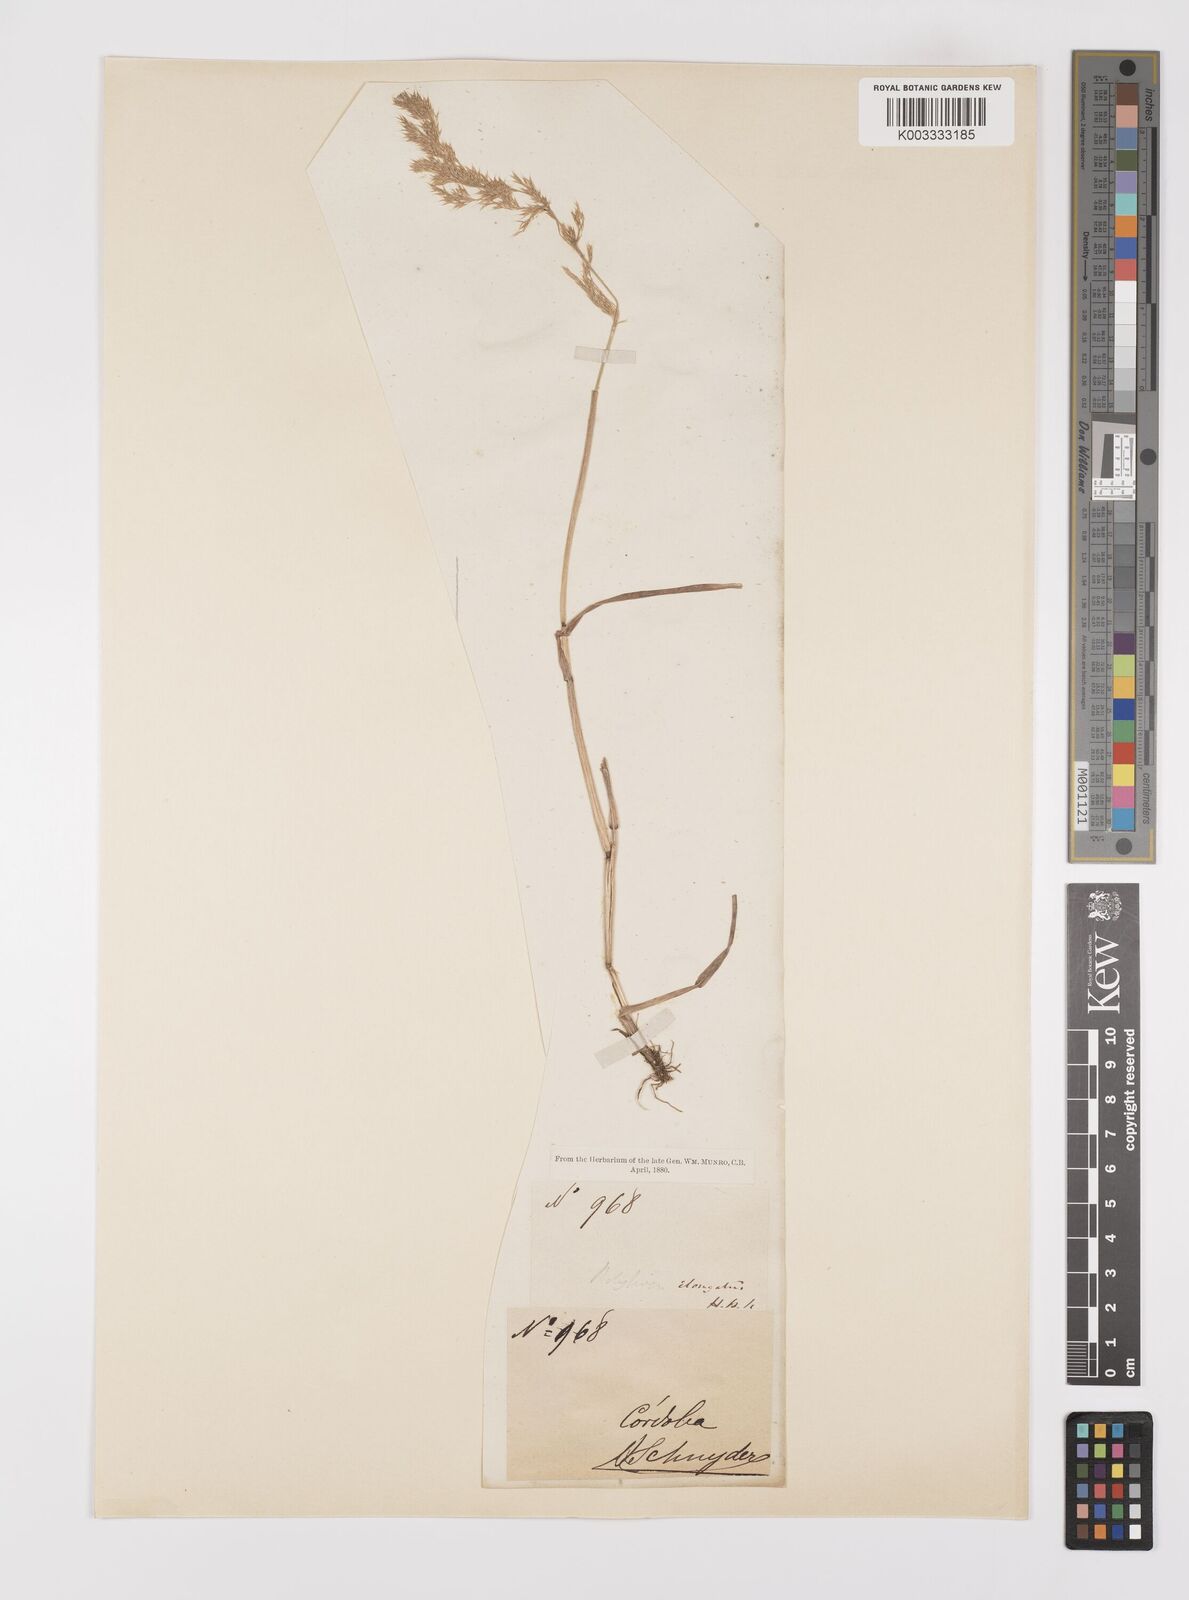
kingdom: Plantae
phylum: Tracheophyta
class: Liliopsida
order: Poales
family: Poaceae
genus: Polypogon
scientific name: Polypogon elongatus
